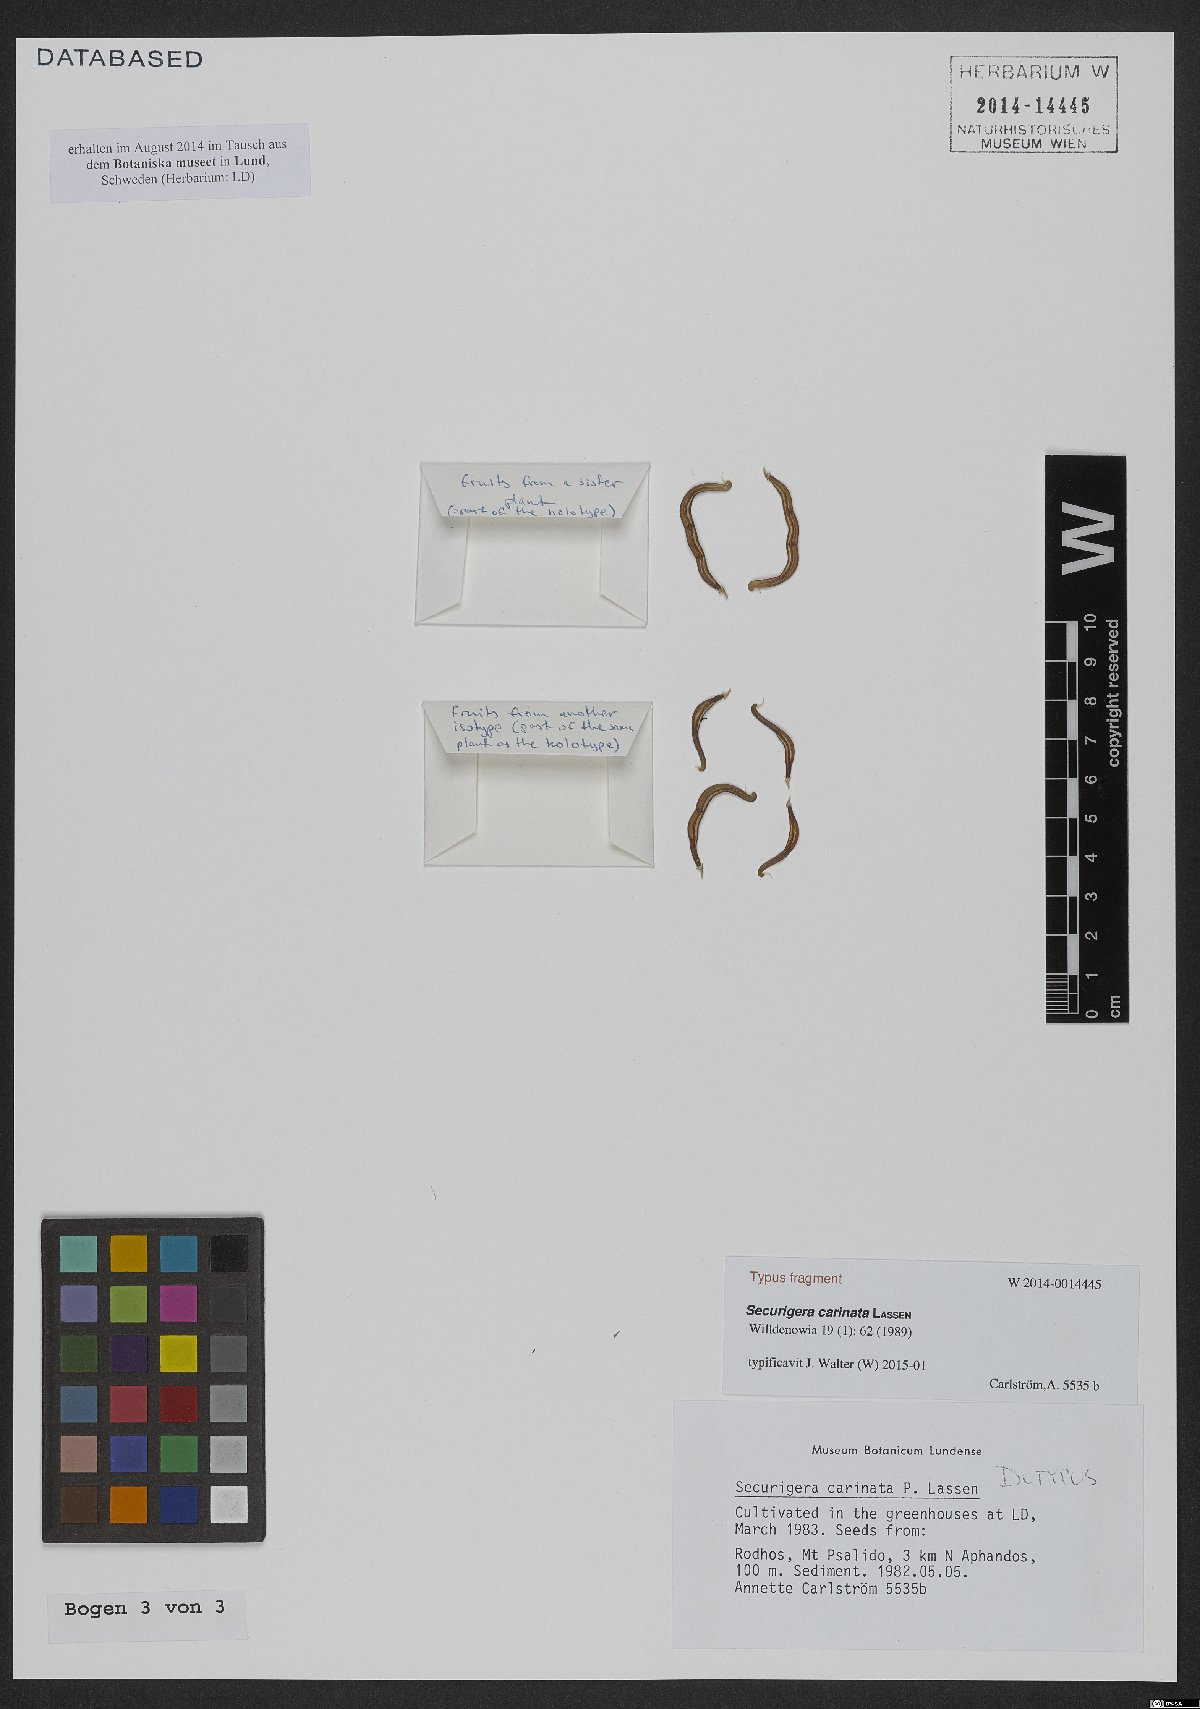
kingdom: Plantae
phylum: Tracheophyta
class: Magnoliopsida
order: Fabales
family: Fabaceae
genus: Coronilla
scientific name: Coronilla carinata
